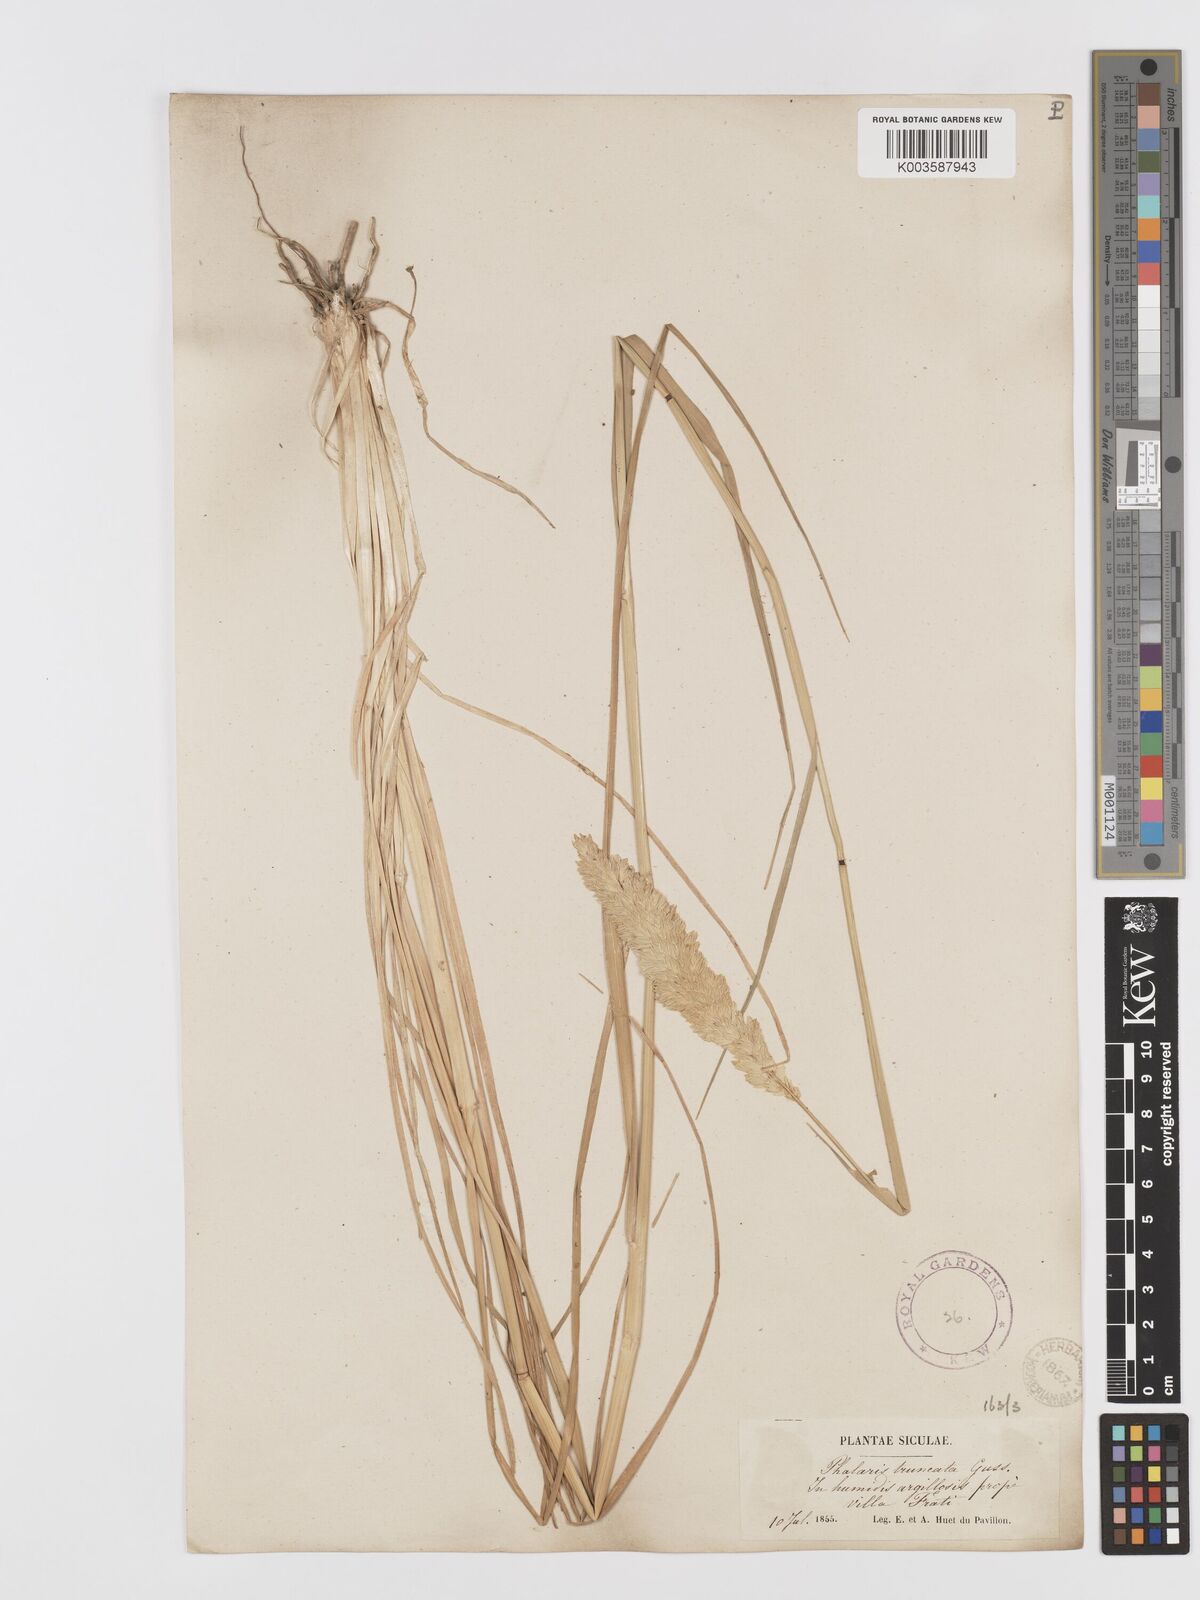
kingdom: Plantae
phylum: Tracheophyta
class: Liliopsida
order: Poales
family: Poaceae
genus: Phalaris
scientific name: Phalaris truncata
